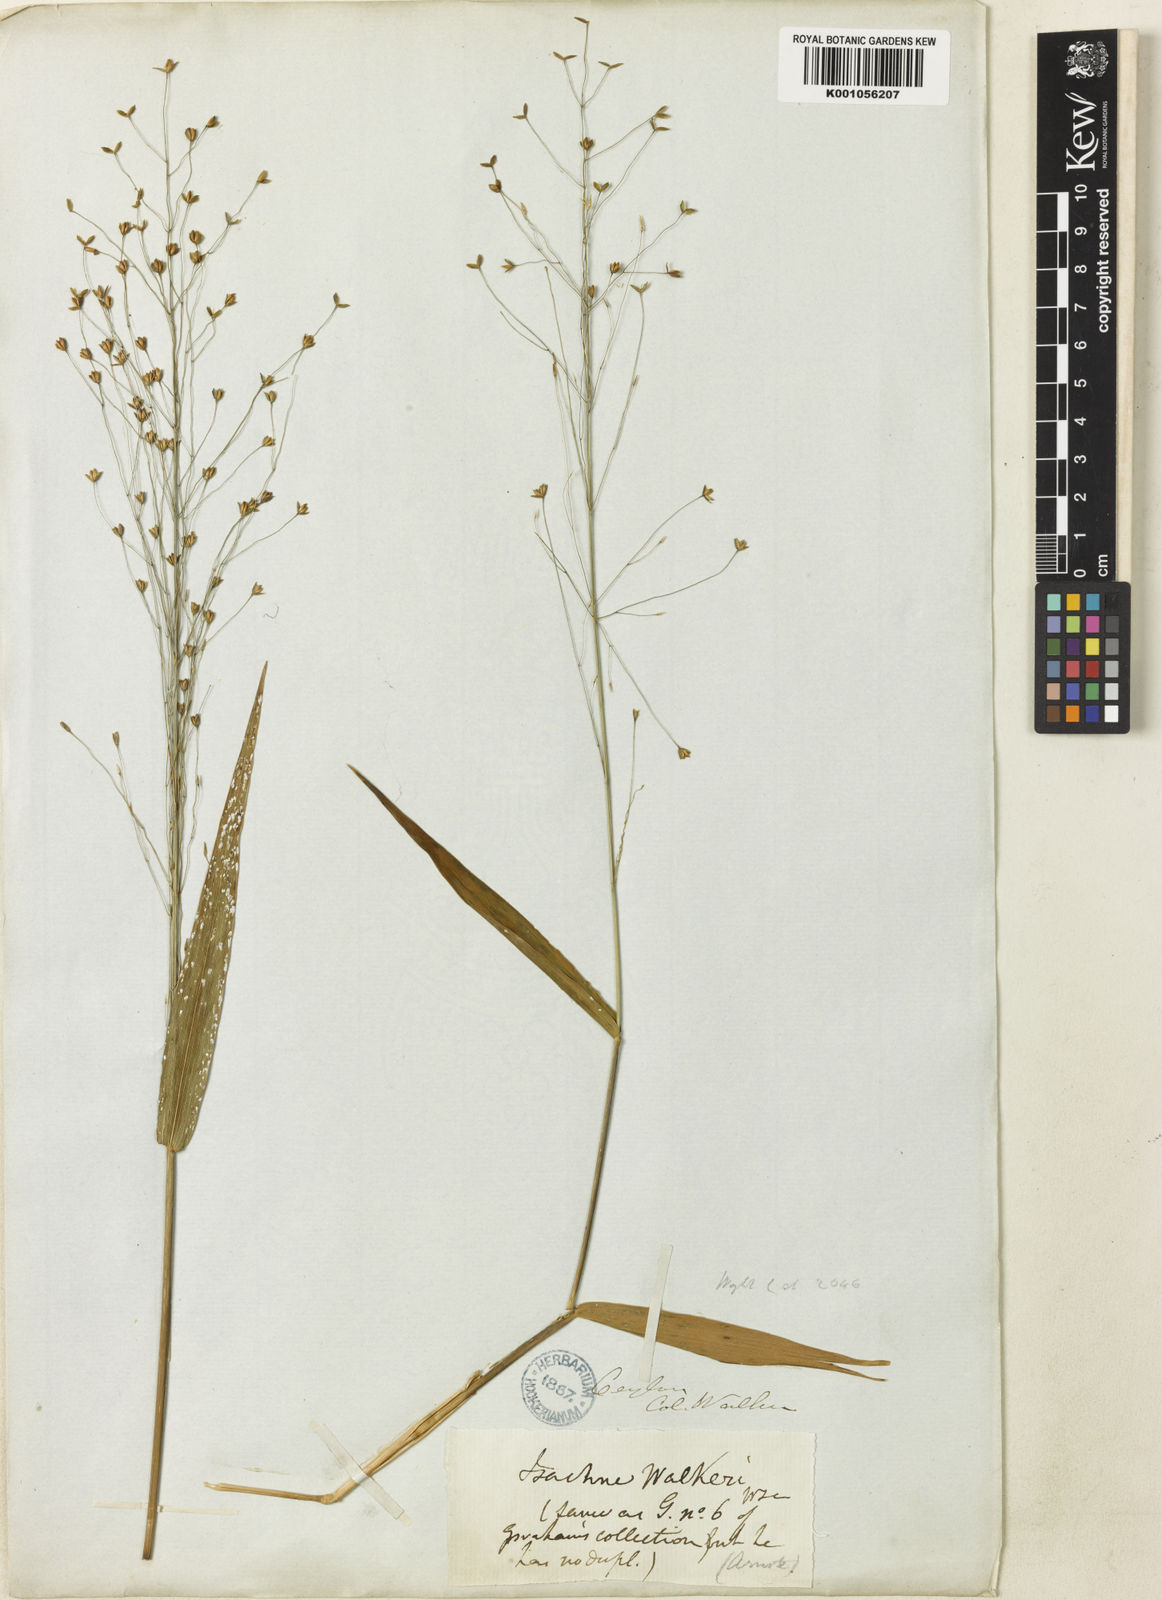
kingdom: Plantae
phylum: Tracheophyta
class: Liliopsida
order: Poales
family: Poaceae
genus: Isachne
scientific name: Isachne walkeri
